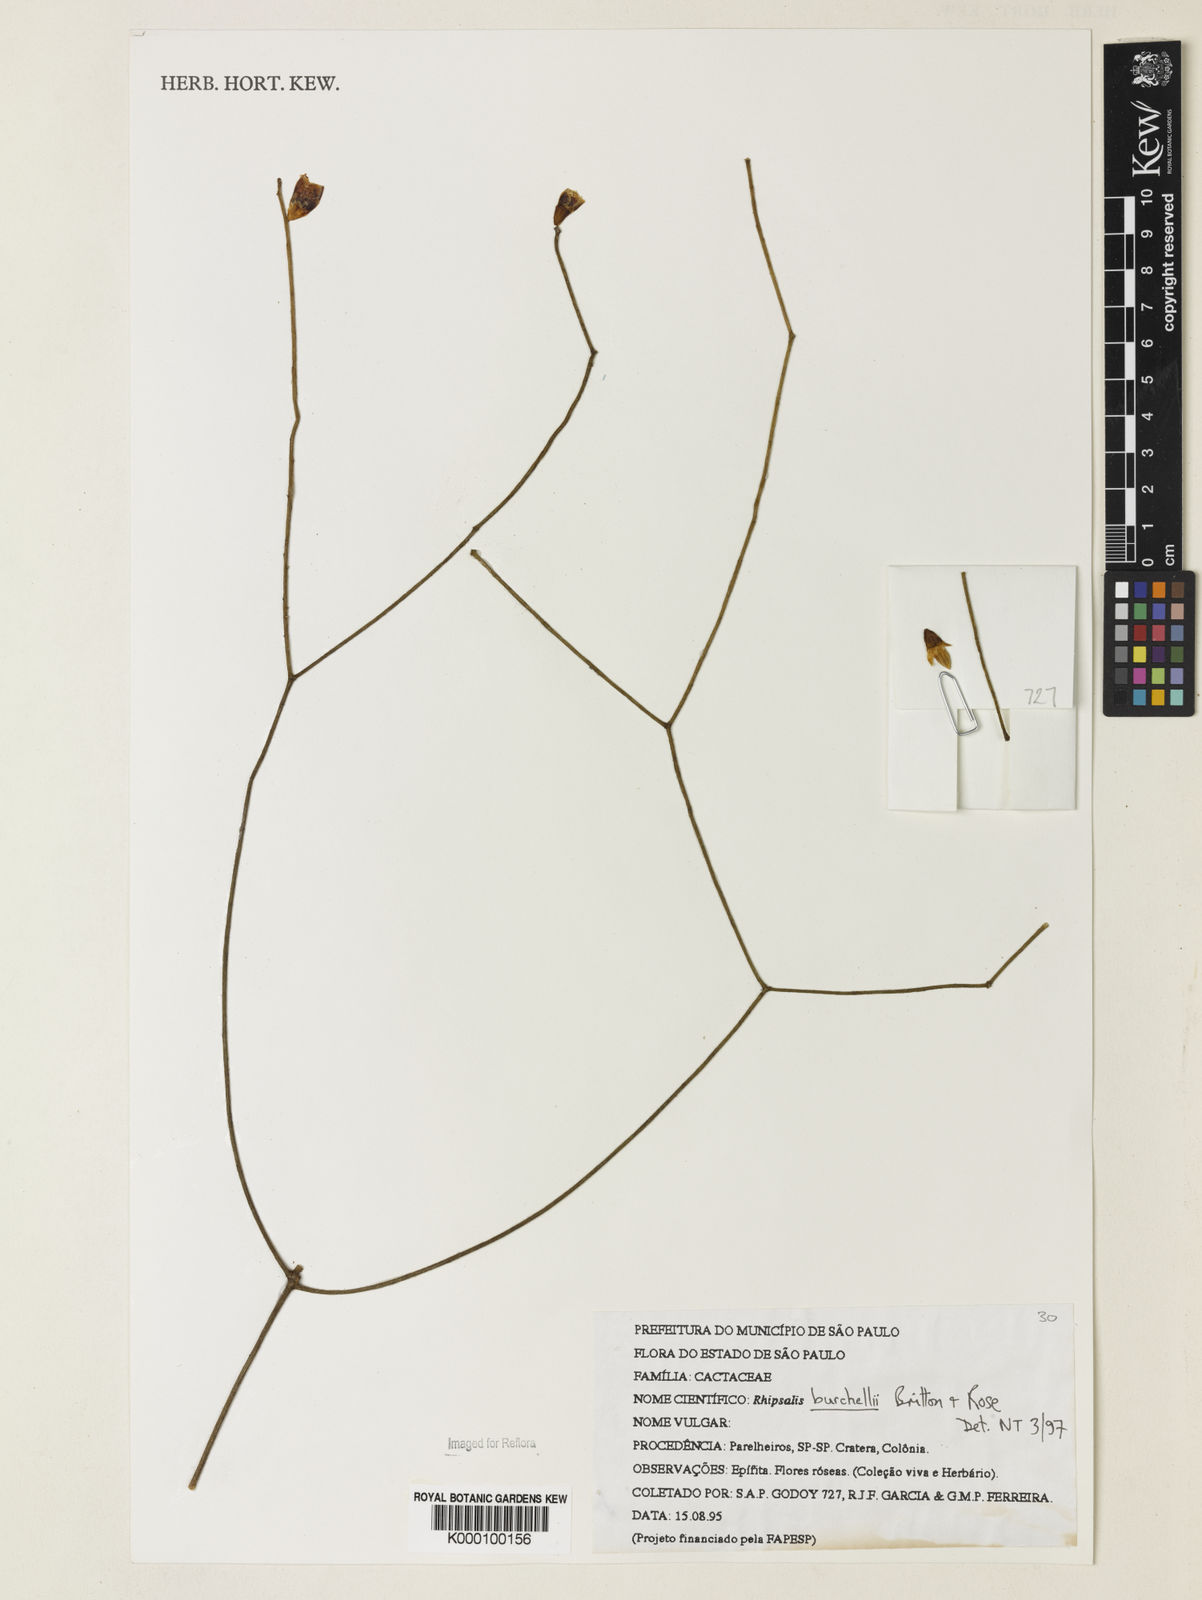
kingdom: Plantae
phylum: Tracheophyta
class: Magnoliopsida
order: Caryophyllales
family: Cactaceae
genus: Rhipsalis
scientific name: Rhipsalis burchellii
